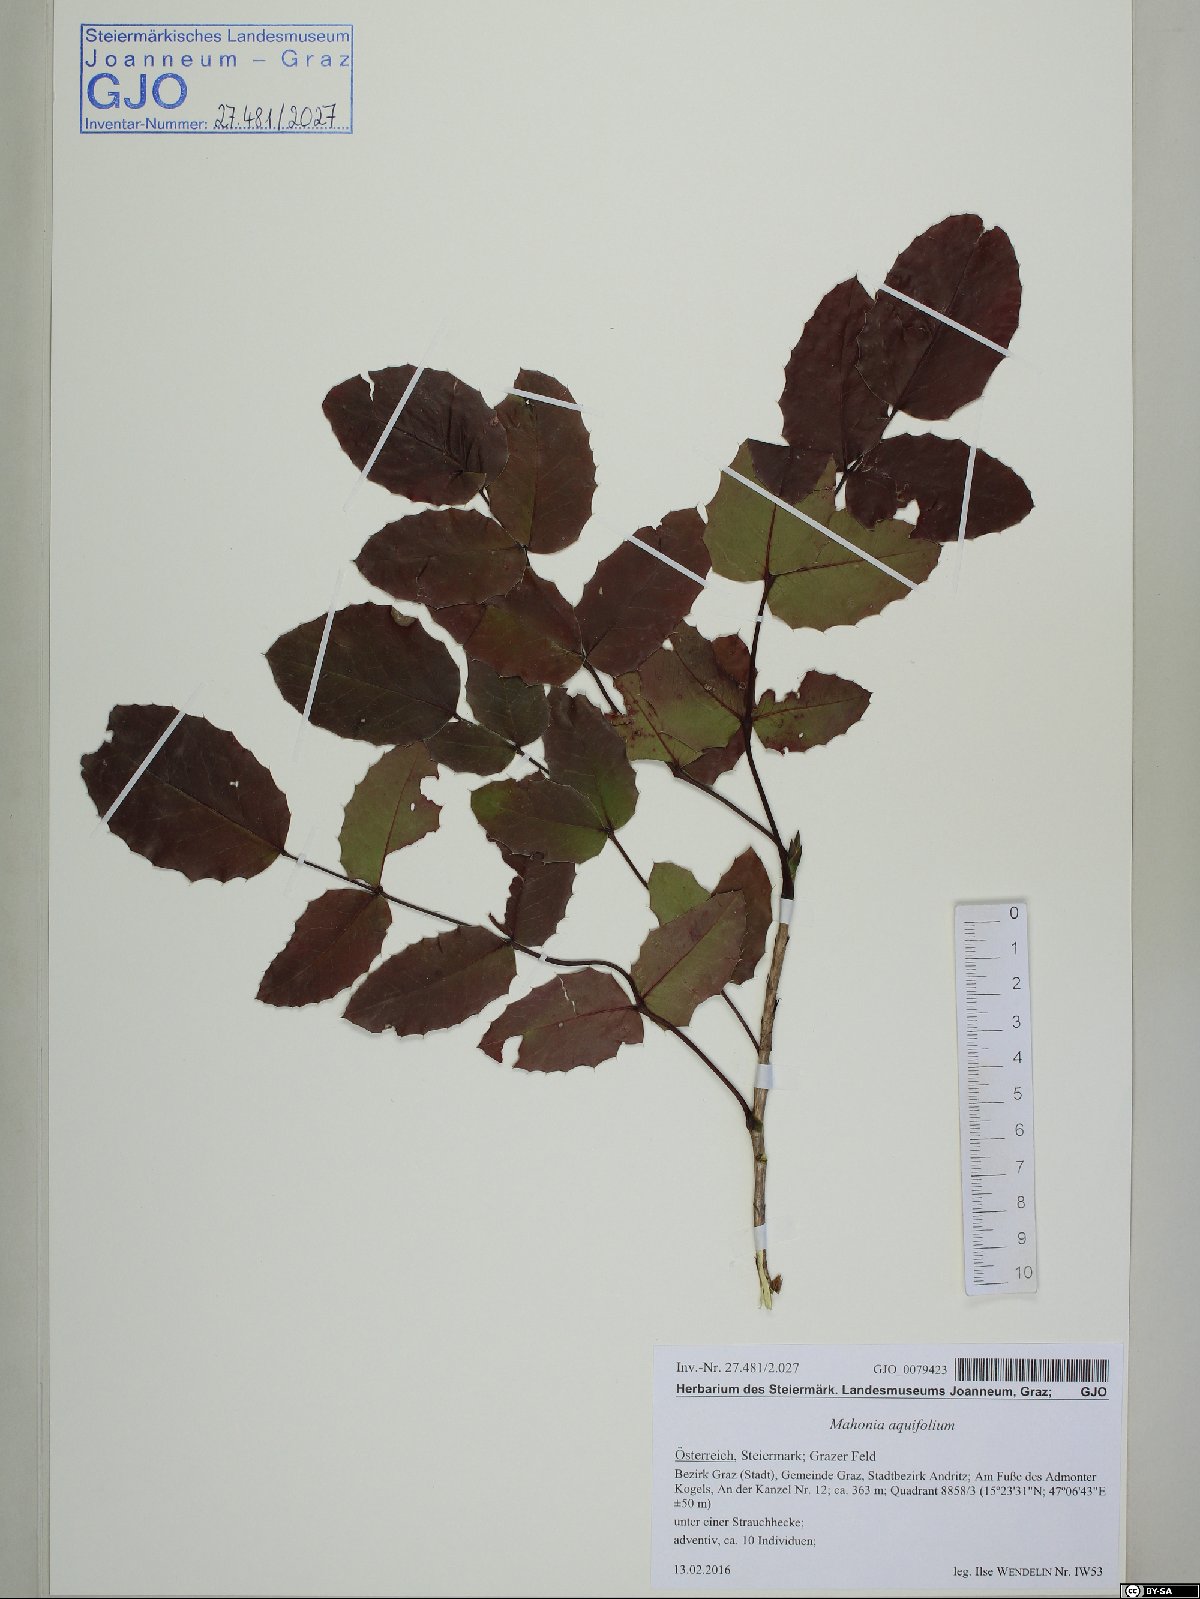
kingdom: Plantae
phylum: Tracheophyta
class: Magnoliopsida
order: Ranunculales
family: Berberidaceae
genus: Mahonia
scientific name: Mahonia aquifolium
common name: Oregon-grape
